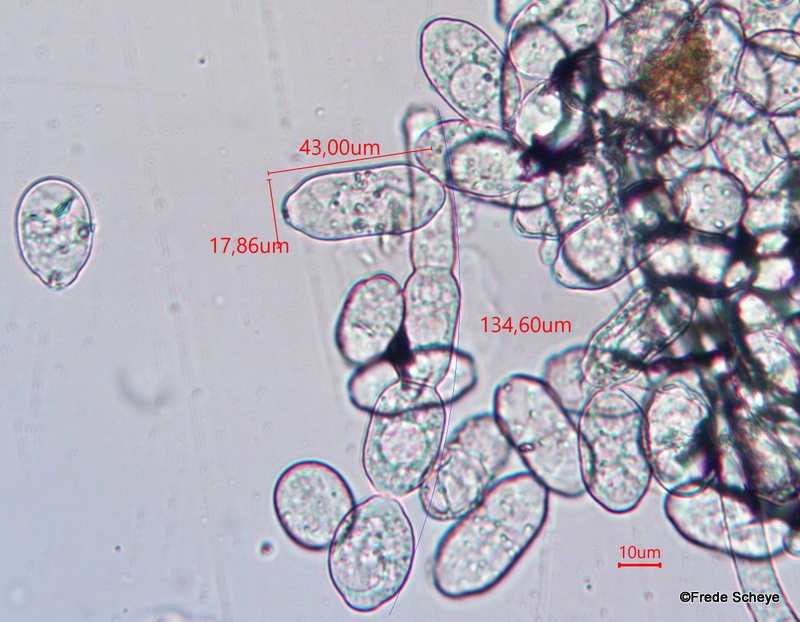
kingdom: Fungi
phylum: Ascomycota
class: Leotiomycetes
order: Helotiales
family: Erysiphaceae
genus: Sawadaea
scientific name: Sawadaea bicornis
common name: Maple mildew
